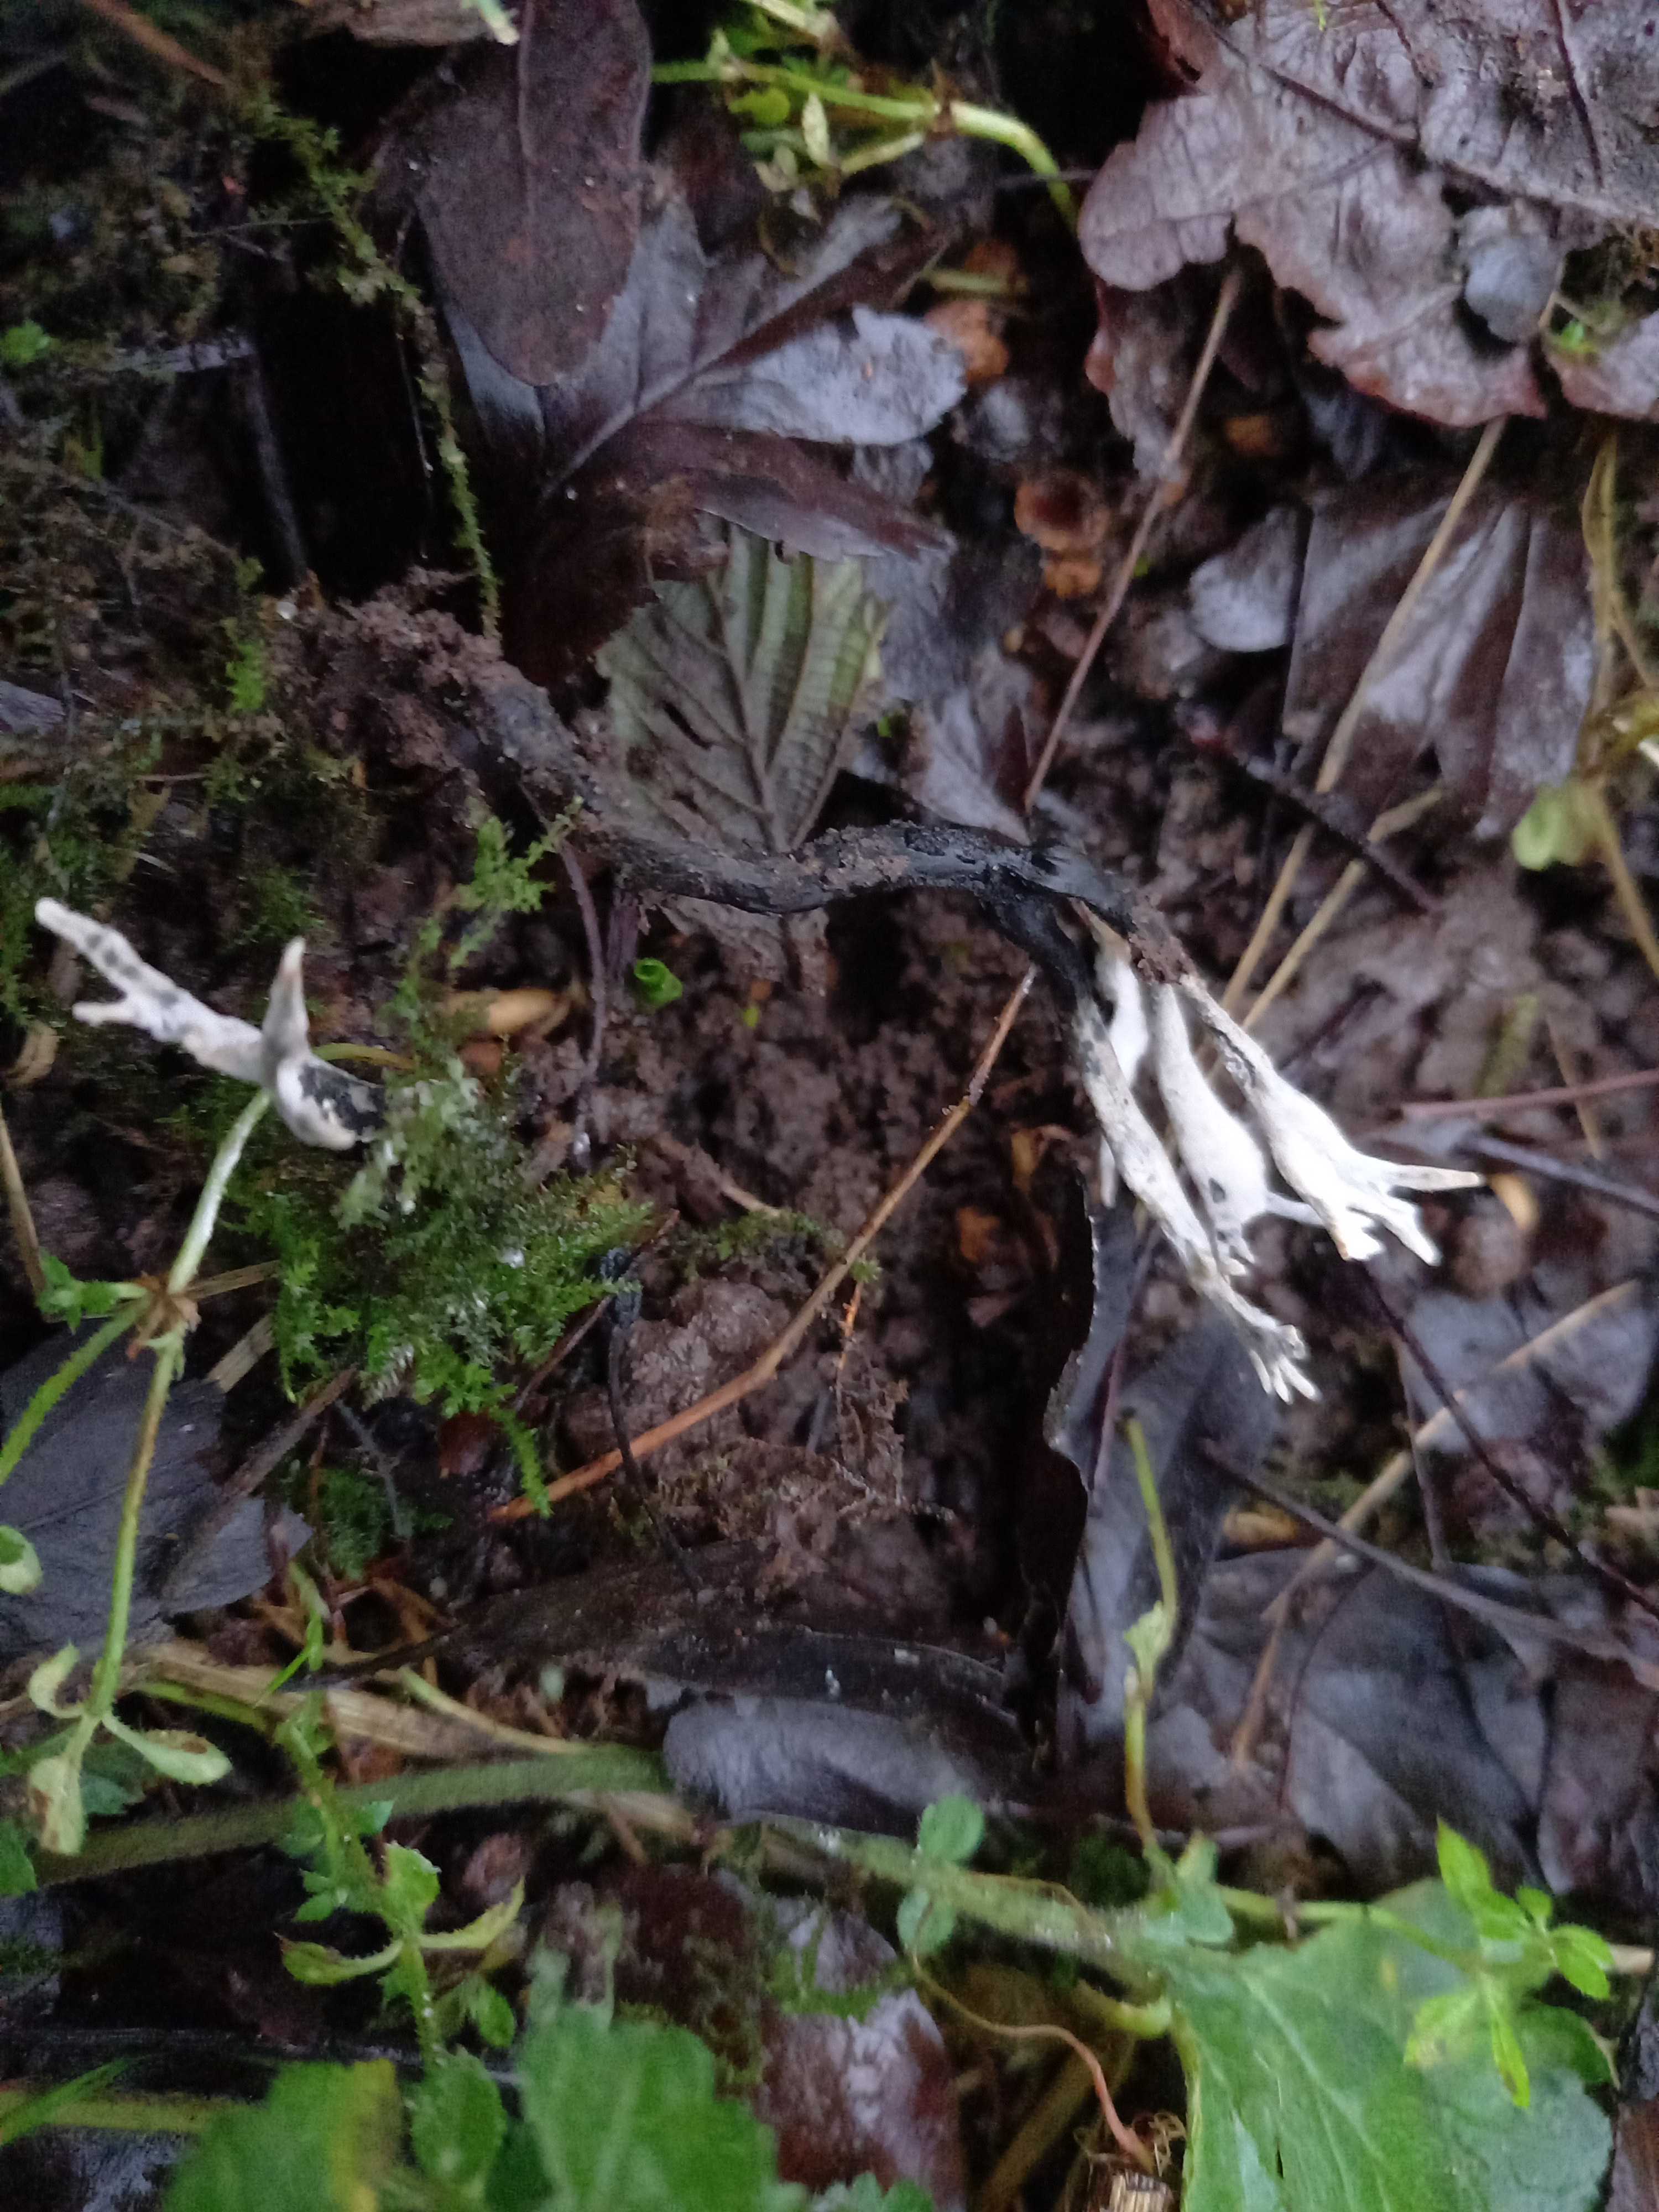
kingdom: Fungi
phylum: Ascomycota
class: Sordariomycetes
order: Xylariales
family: Xylariaceae
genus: Xylaria
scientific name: Xylaria hypoxylon
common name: grenet stødsvamp
